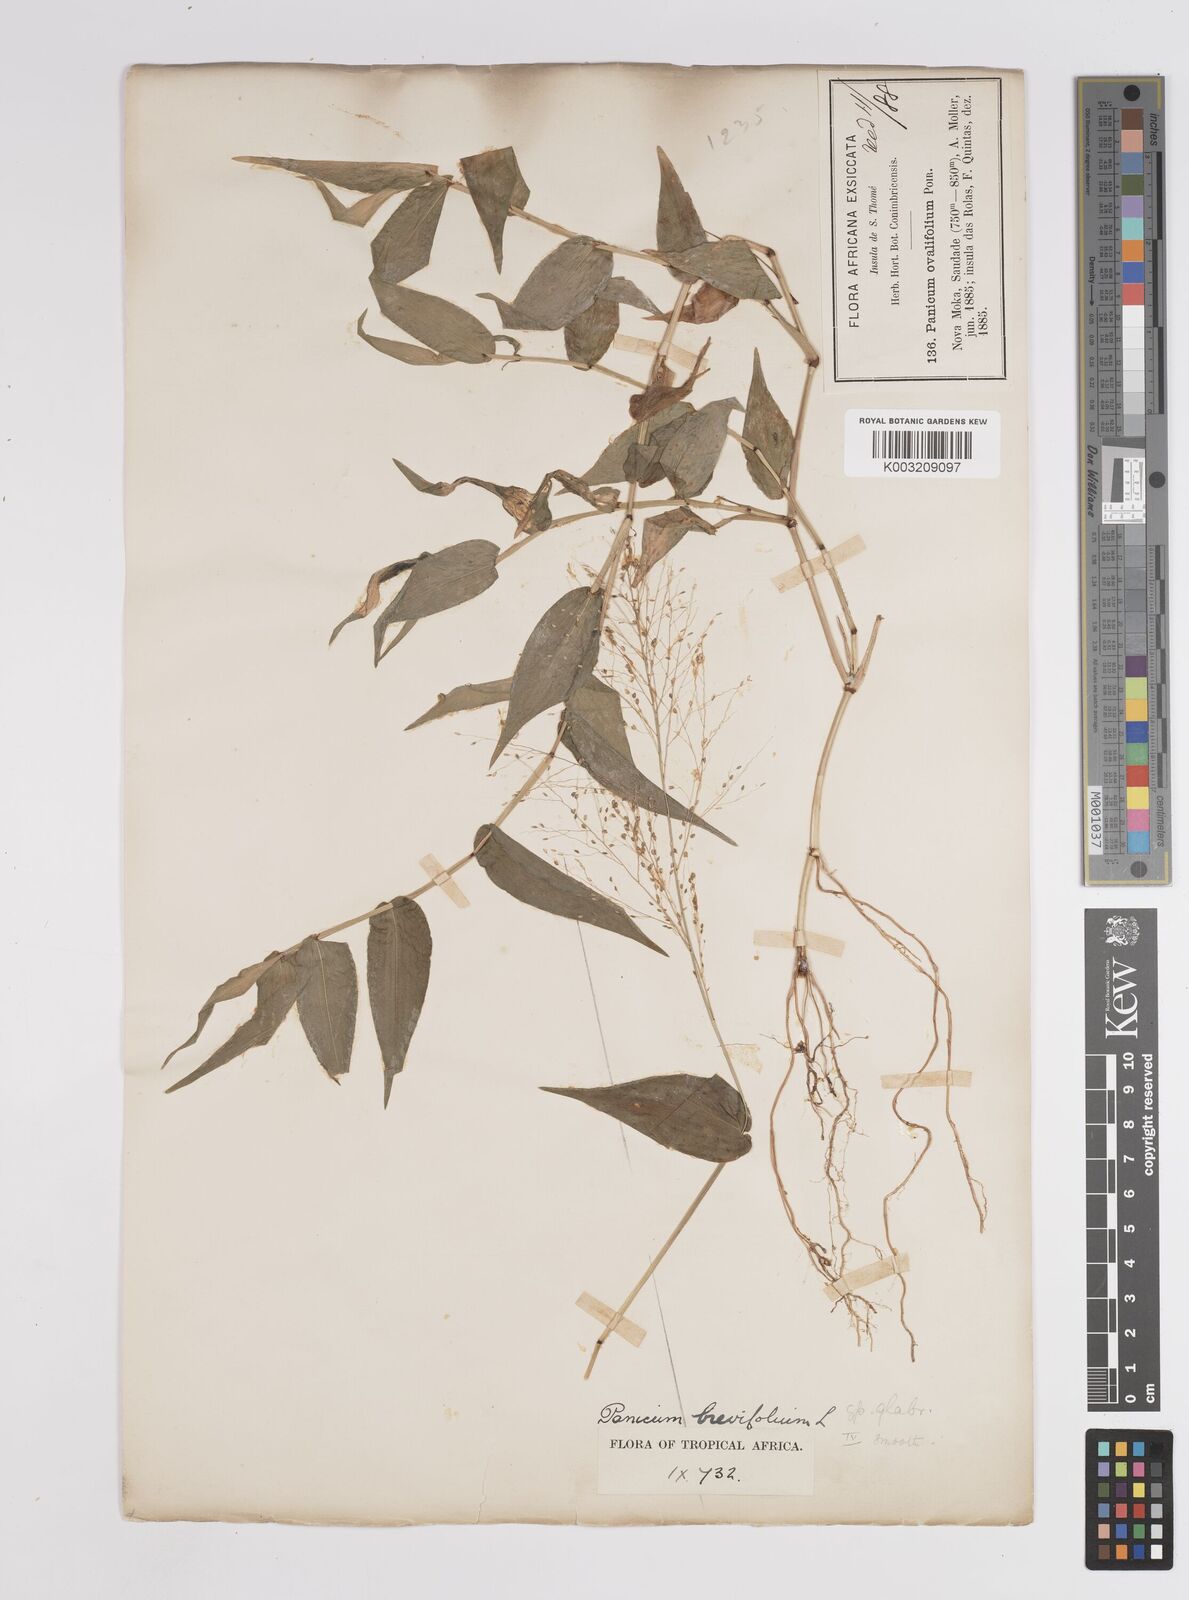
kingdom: Plantae
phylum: Tracheophyta
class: Liliopsida
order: Poales
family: Poaceae
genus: Panicum
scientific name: Panicum brevifolium
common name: Shortleaf panic grass
